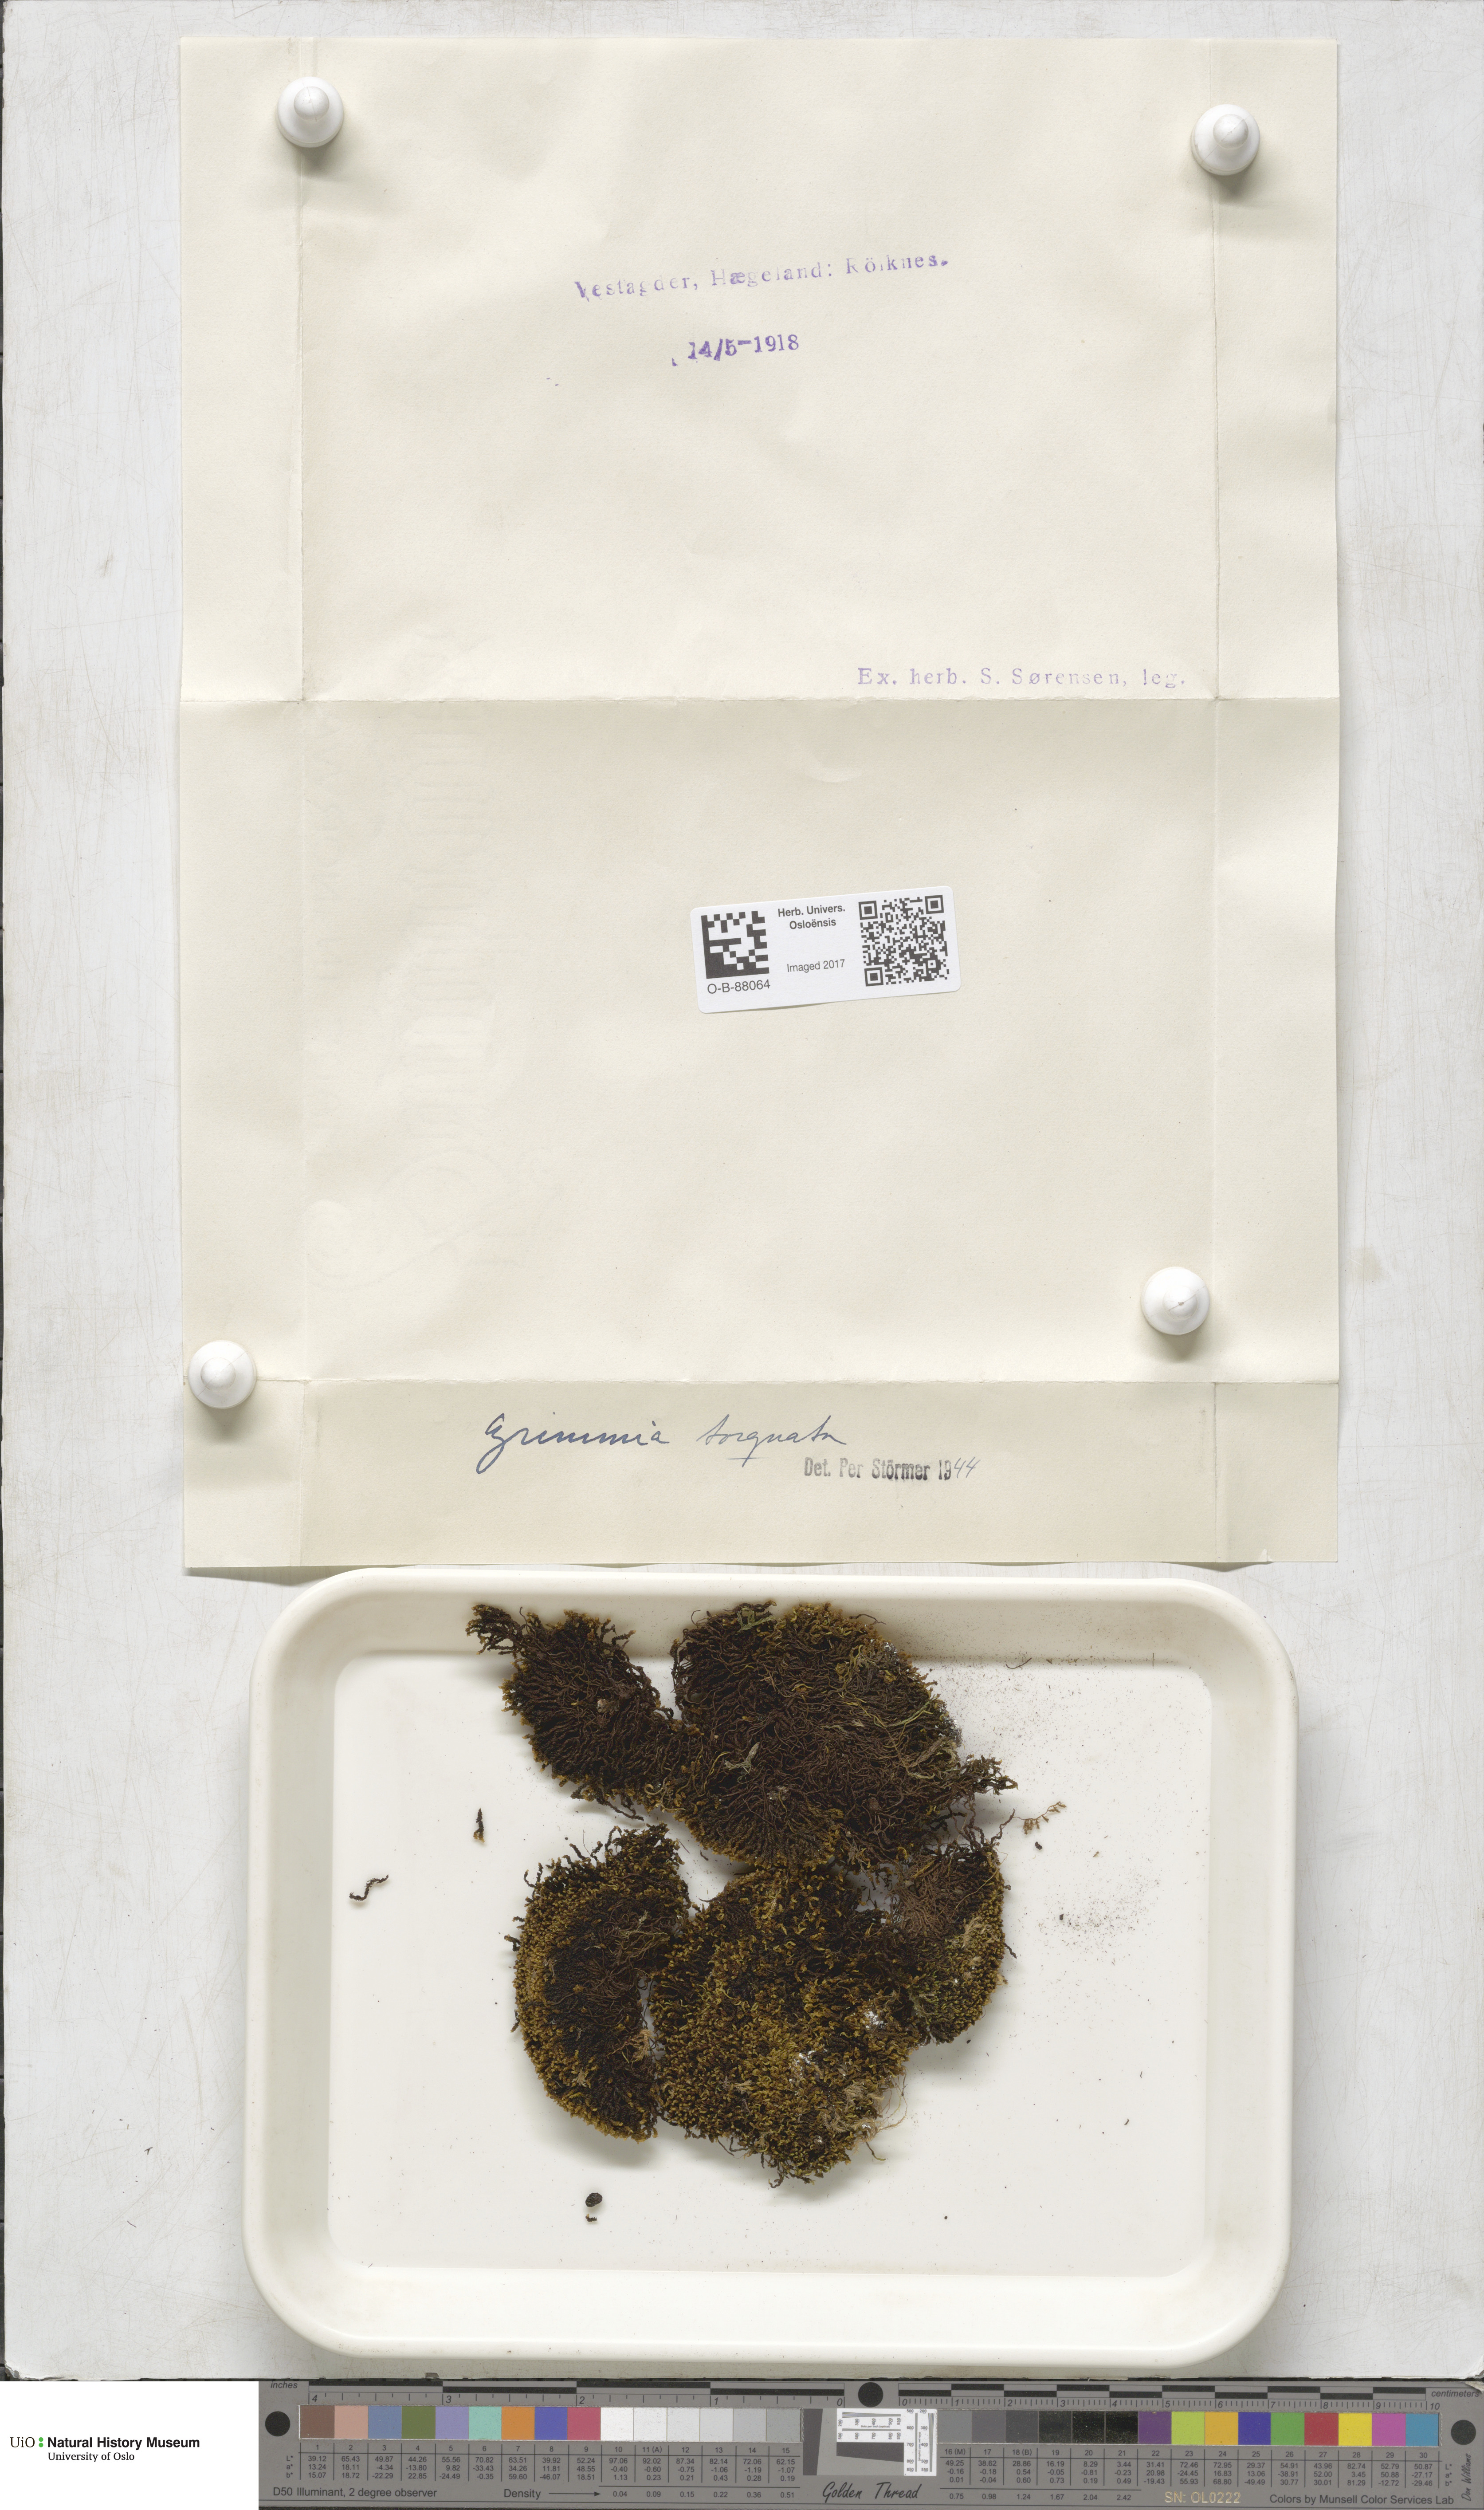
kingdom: Plantae
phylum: Bryophyta
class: Bryopsida
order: Grimmiales
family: Grimmiaceae
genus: Grimmia
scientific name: Grimmia torquata
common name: Twisted grimmia
